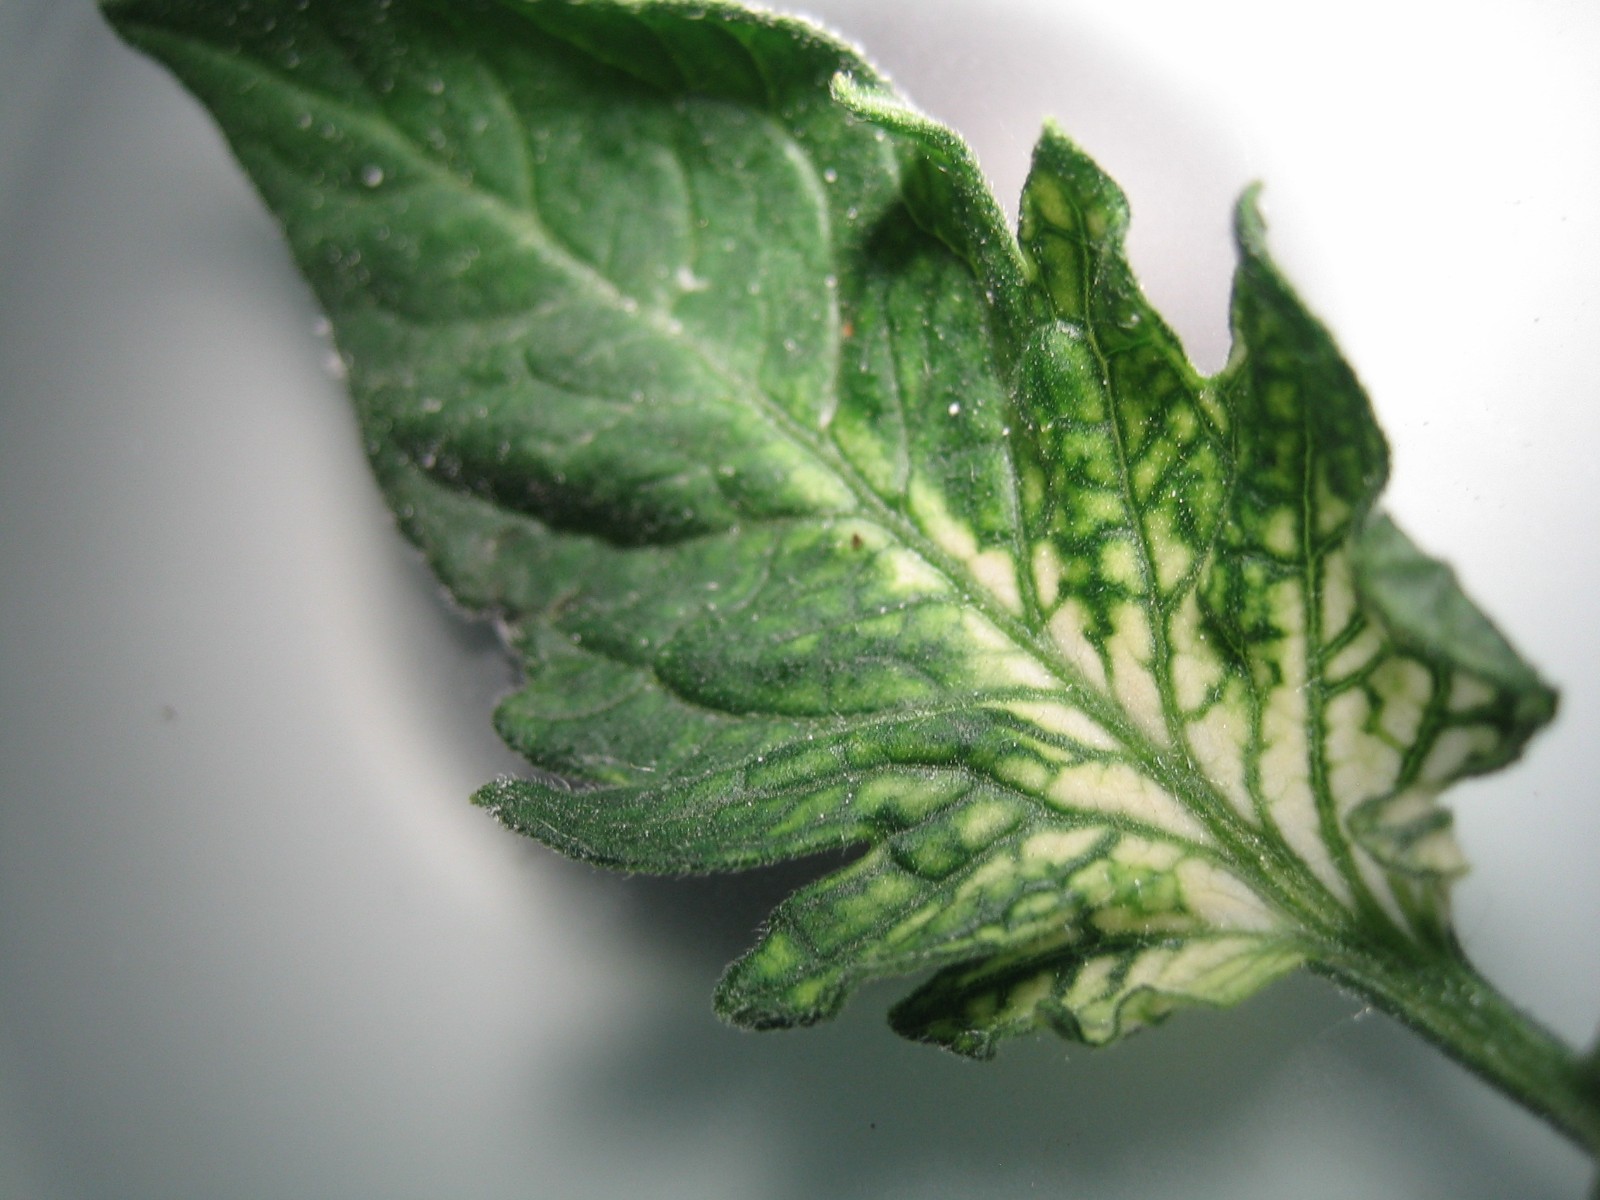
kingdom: Fungi
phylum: Ascomycota
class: Leotiomycetes
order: Helotiales
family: Erysiphaceae
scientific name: Erysiphaceae
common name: meldugfamilien
